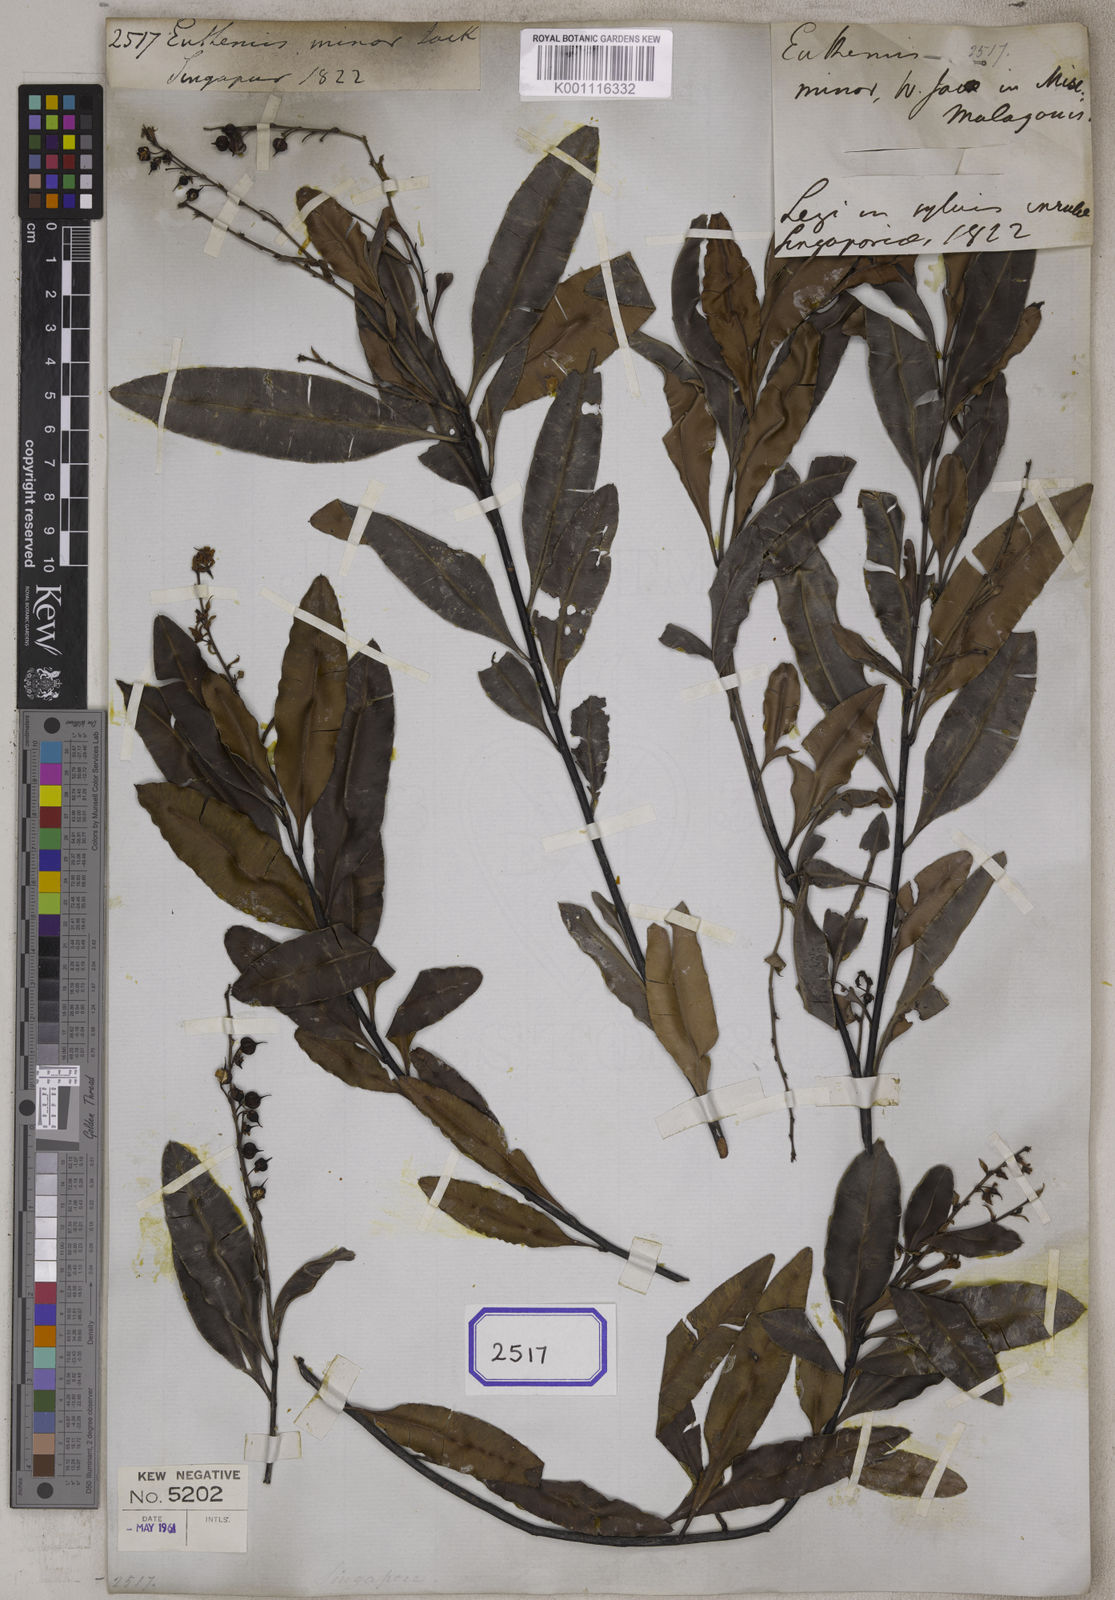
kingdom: Plantae
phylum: Tracheophyta
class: Magnoliopsida
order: Malpighiales
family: Ochnaceae
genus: Euthemis
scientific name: Euthemis minor
